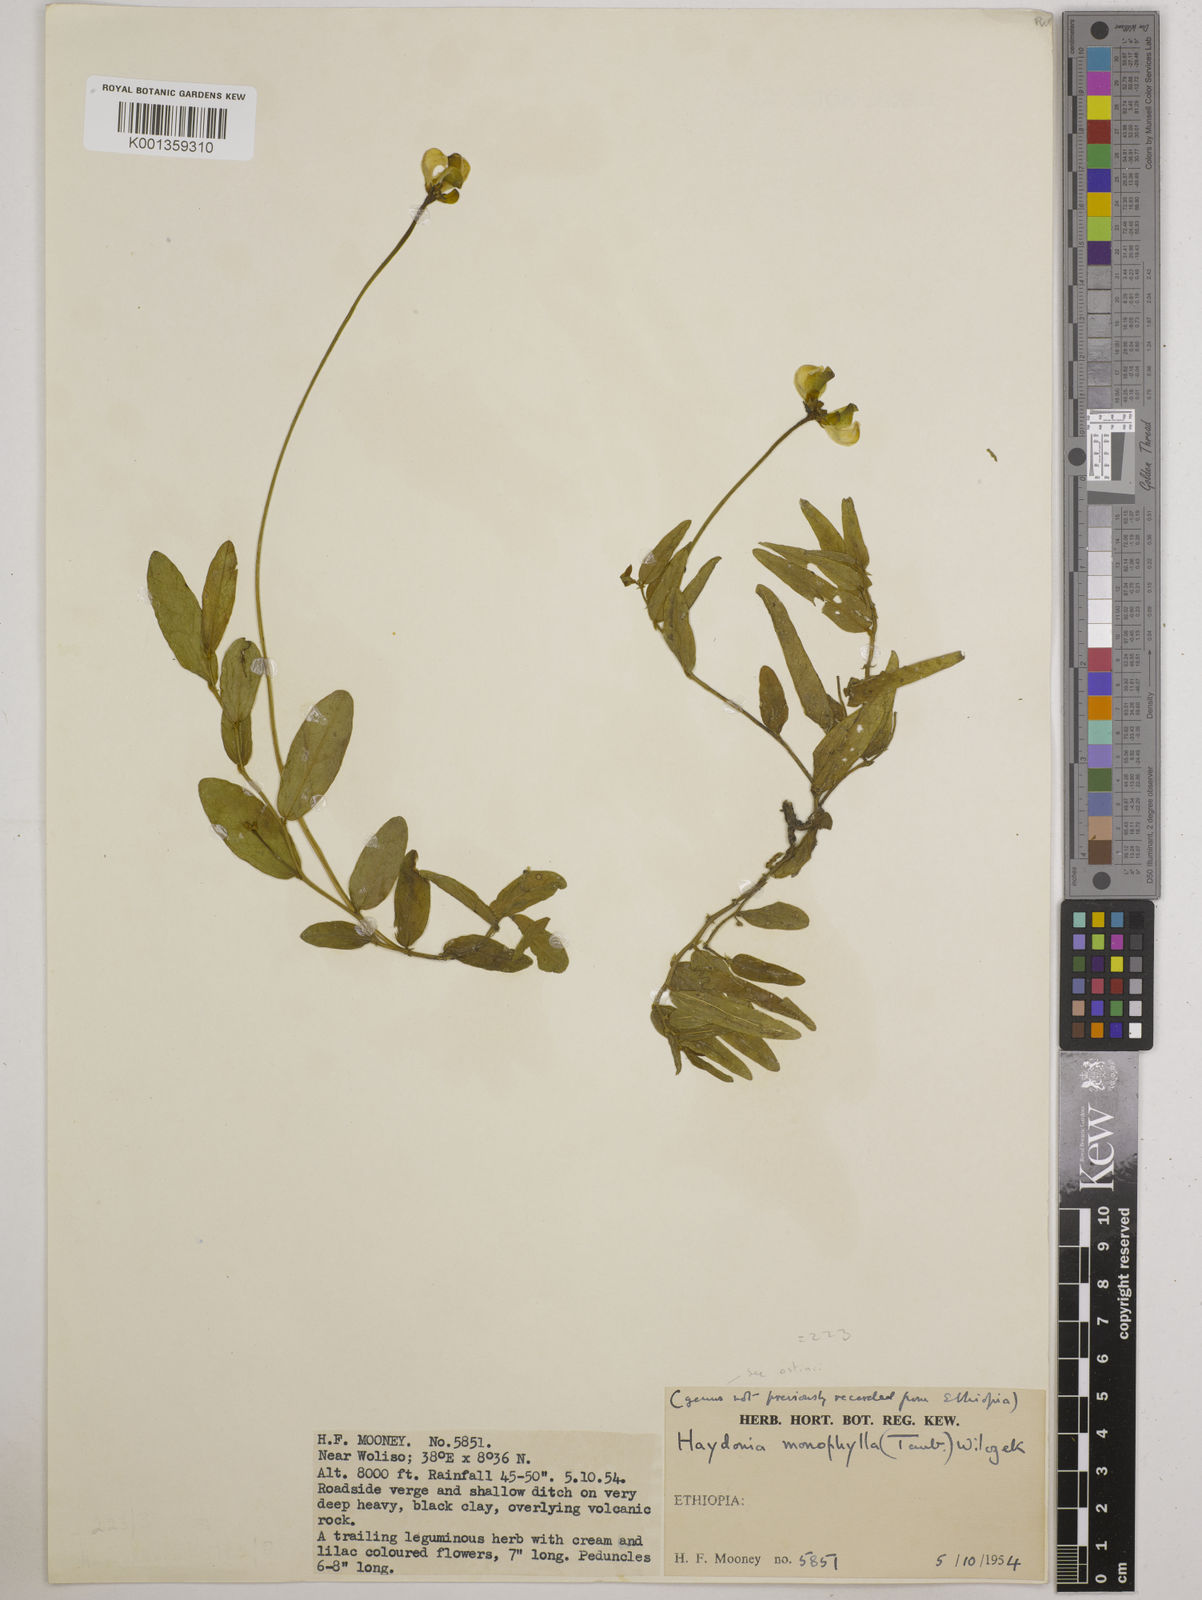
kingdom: Plantae
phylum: Tracheophyta
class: Magnoliopsida
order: Fabales
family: Fabaceae
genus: Vigna
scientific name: Vigna monophylla
